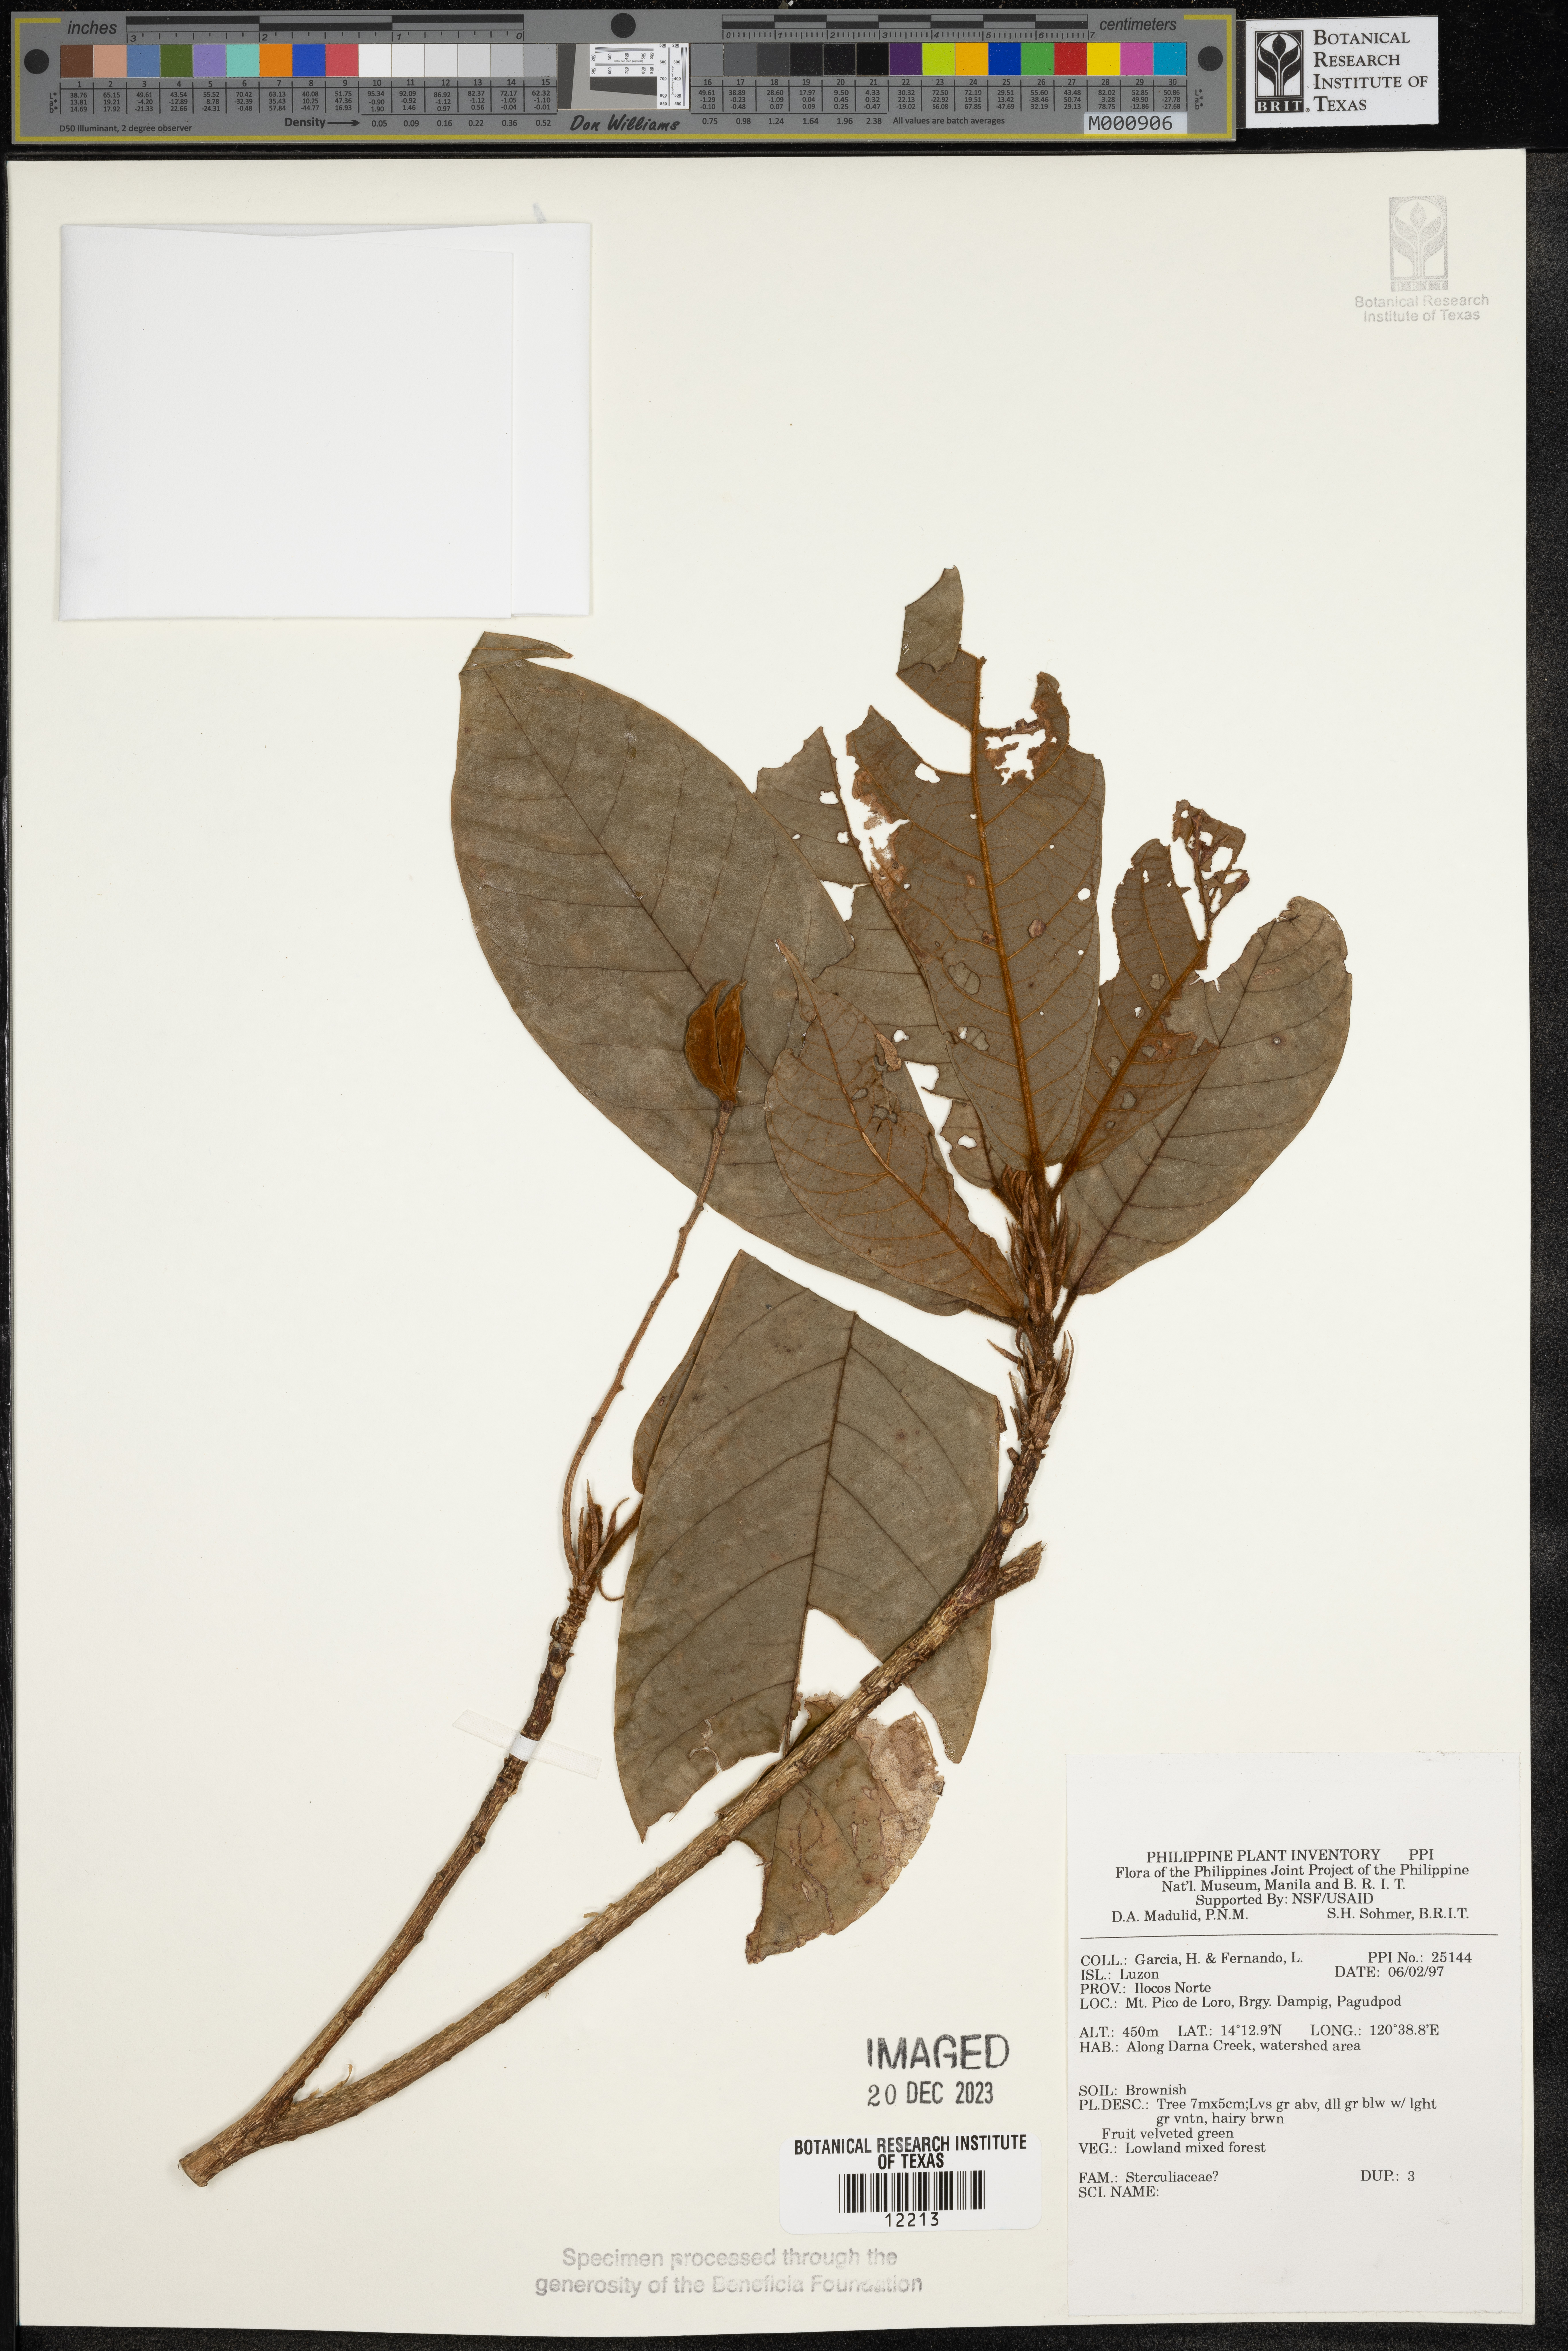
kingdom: Plantae
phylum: Tracheophyta
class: Magnoliopsida
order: Malvales
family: Sterculiaceae
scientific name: Sterculiaceae
